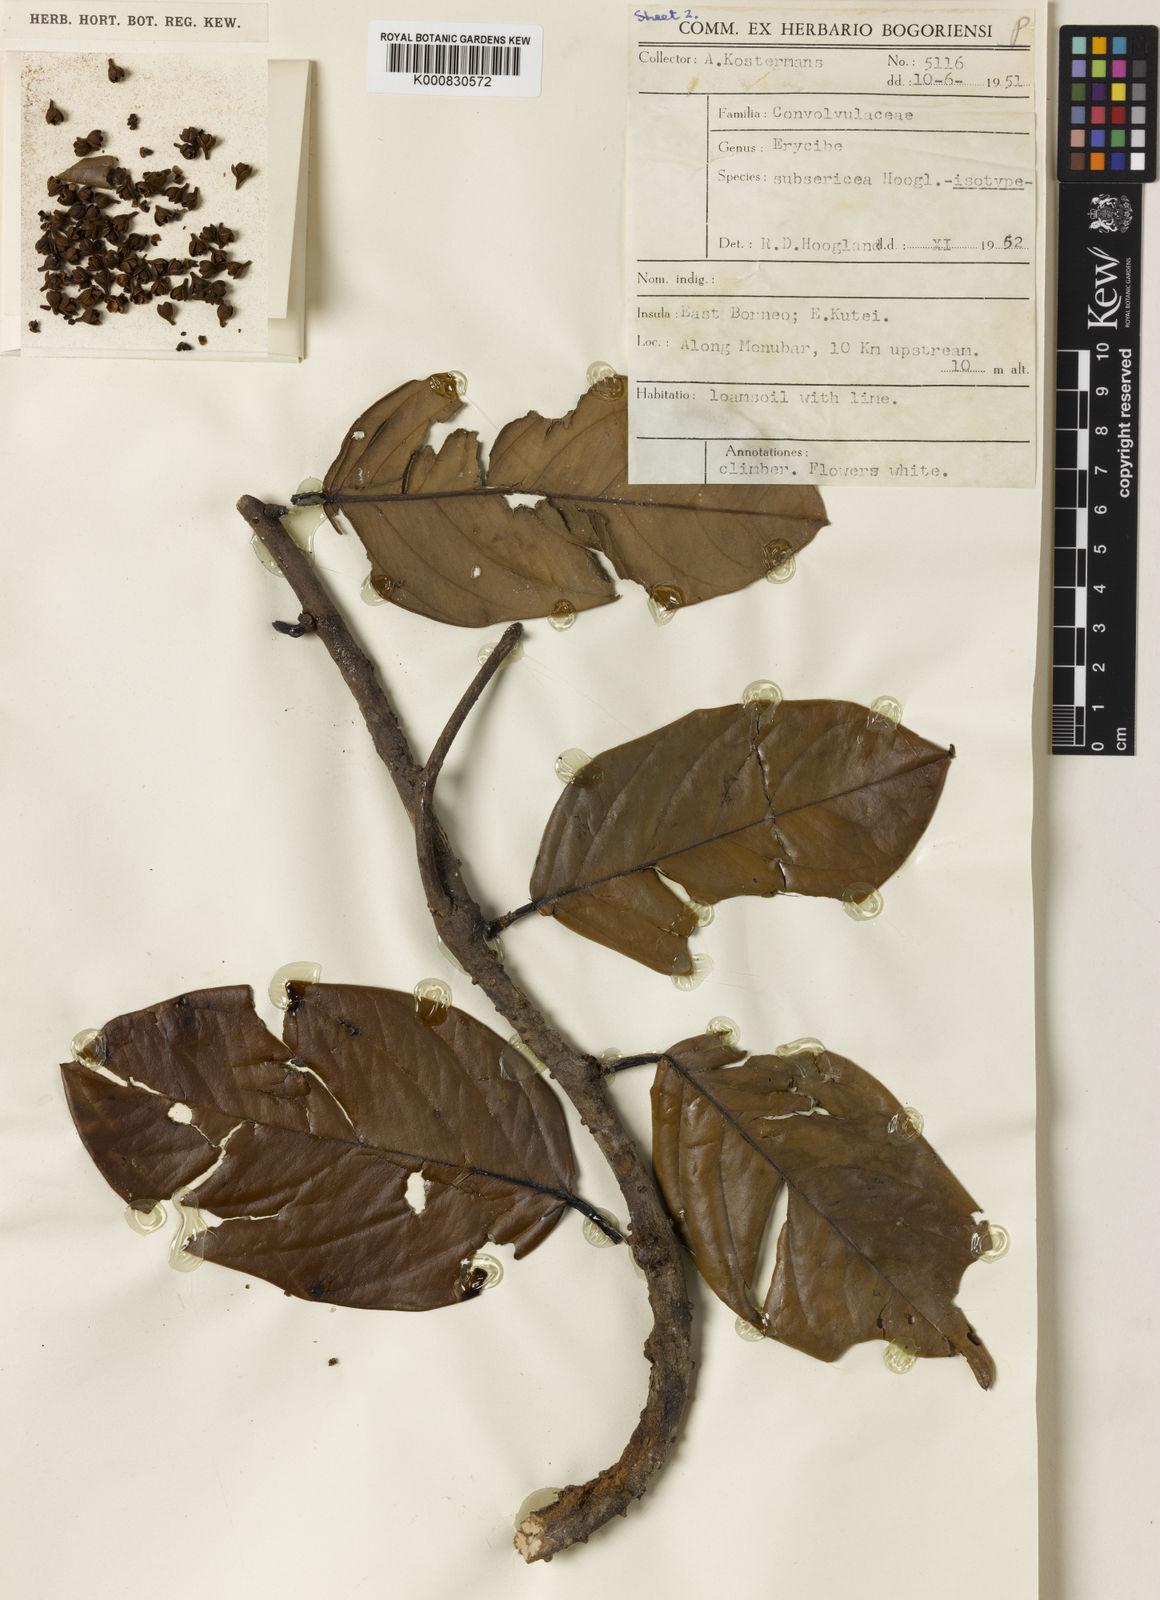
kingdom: Plantae
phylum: Tracheophyta
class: Magnoliopsida
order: Solanales
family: Convolvulaceae
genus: Erycibe
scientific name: Erycibe subsericea
